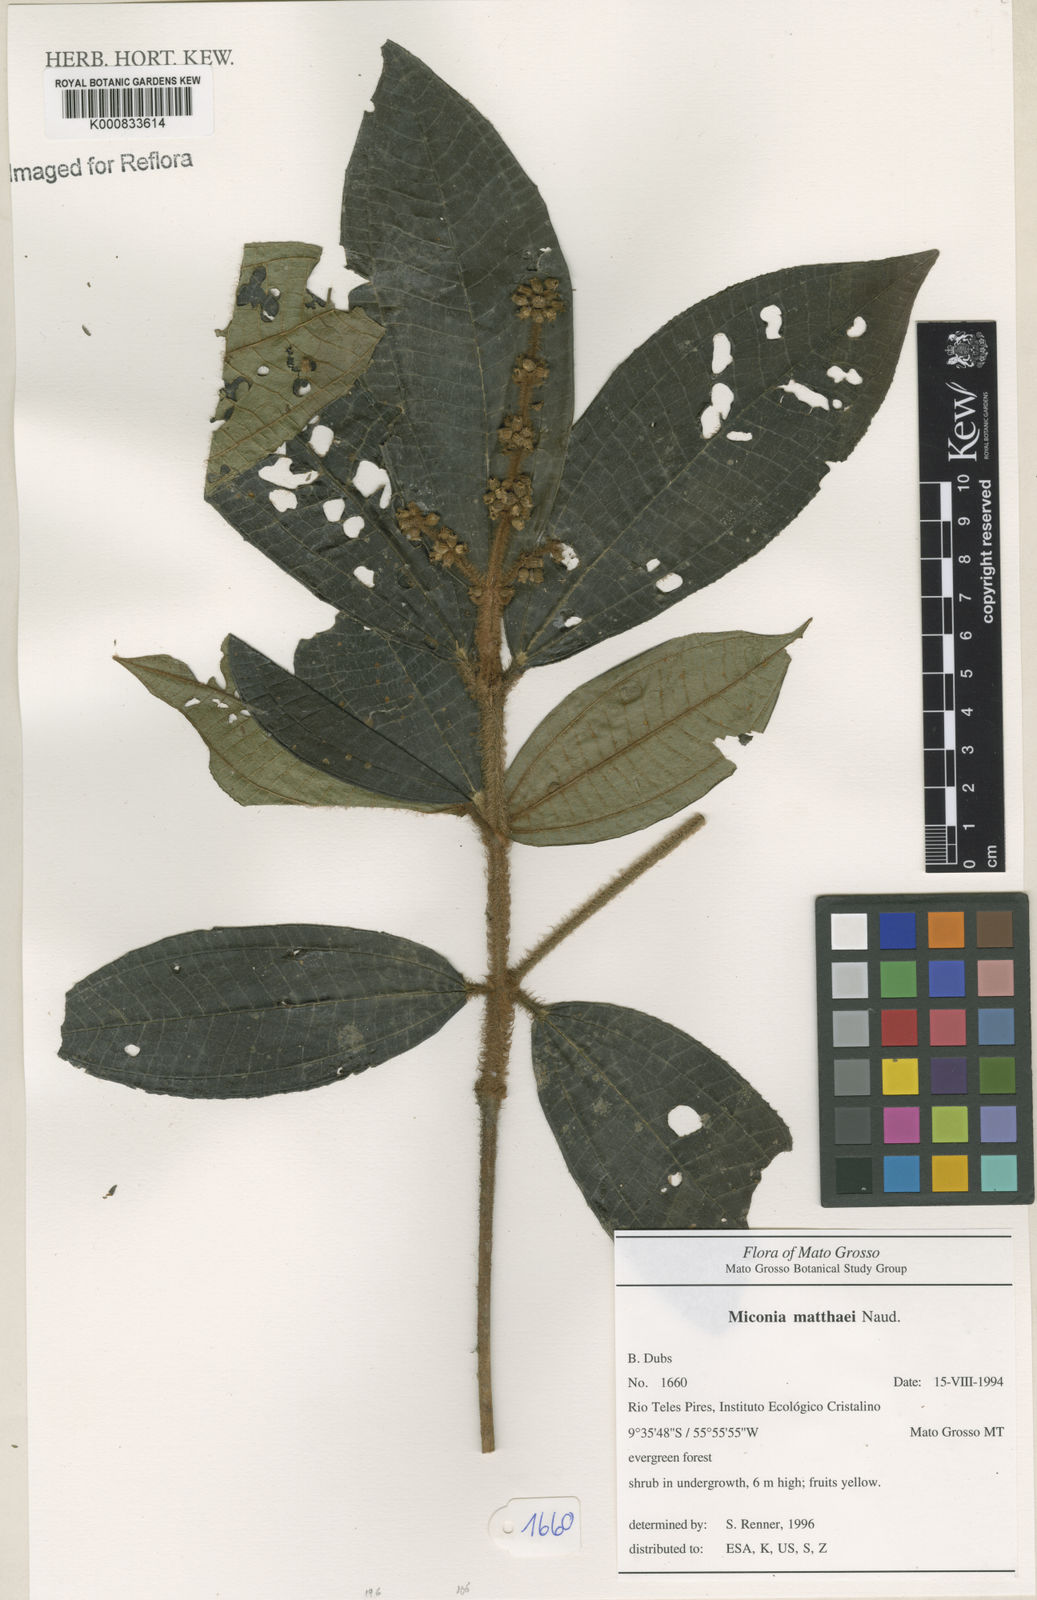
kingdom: Plantae
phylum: Tracheophyta
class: Magnoliopsida
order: Myrtales
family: Melastomataceae
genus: Miconia
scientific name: Miconia matthaei
